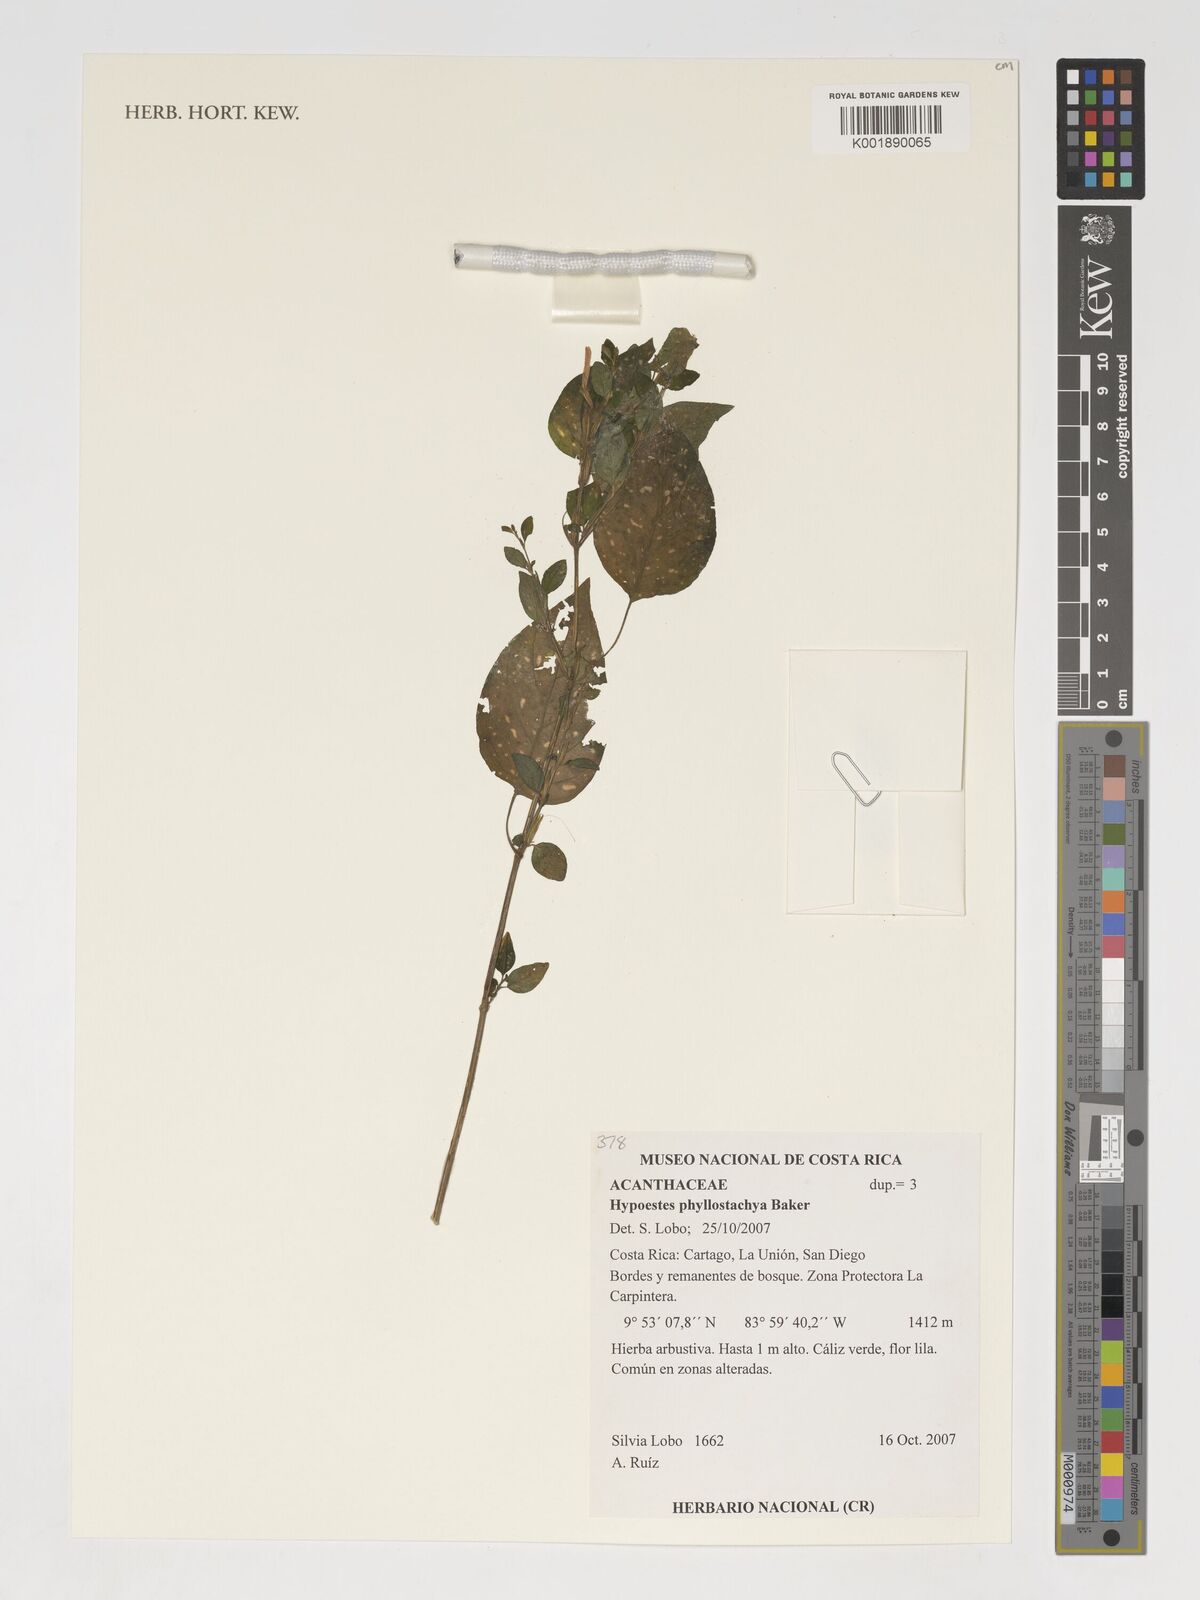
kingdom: Plantae
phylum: Tracheophyta
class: Magnoliopsida
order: Lamiales
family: Acanthaceae
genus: Hypoestes
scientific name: Hypoestes phyllostachya
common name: Polkadot-plant
